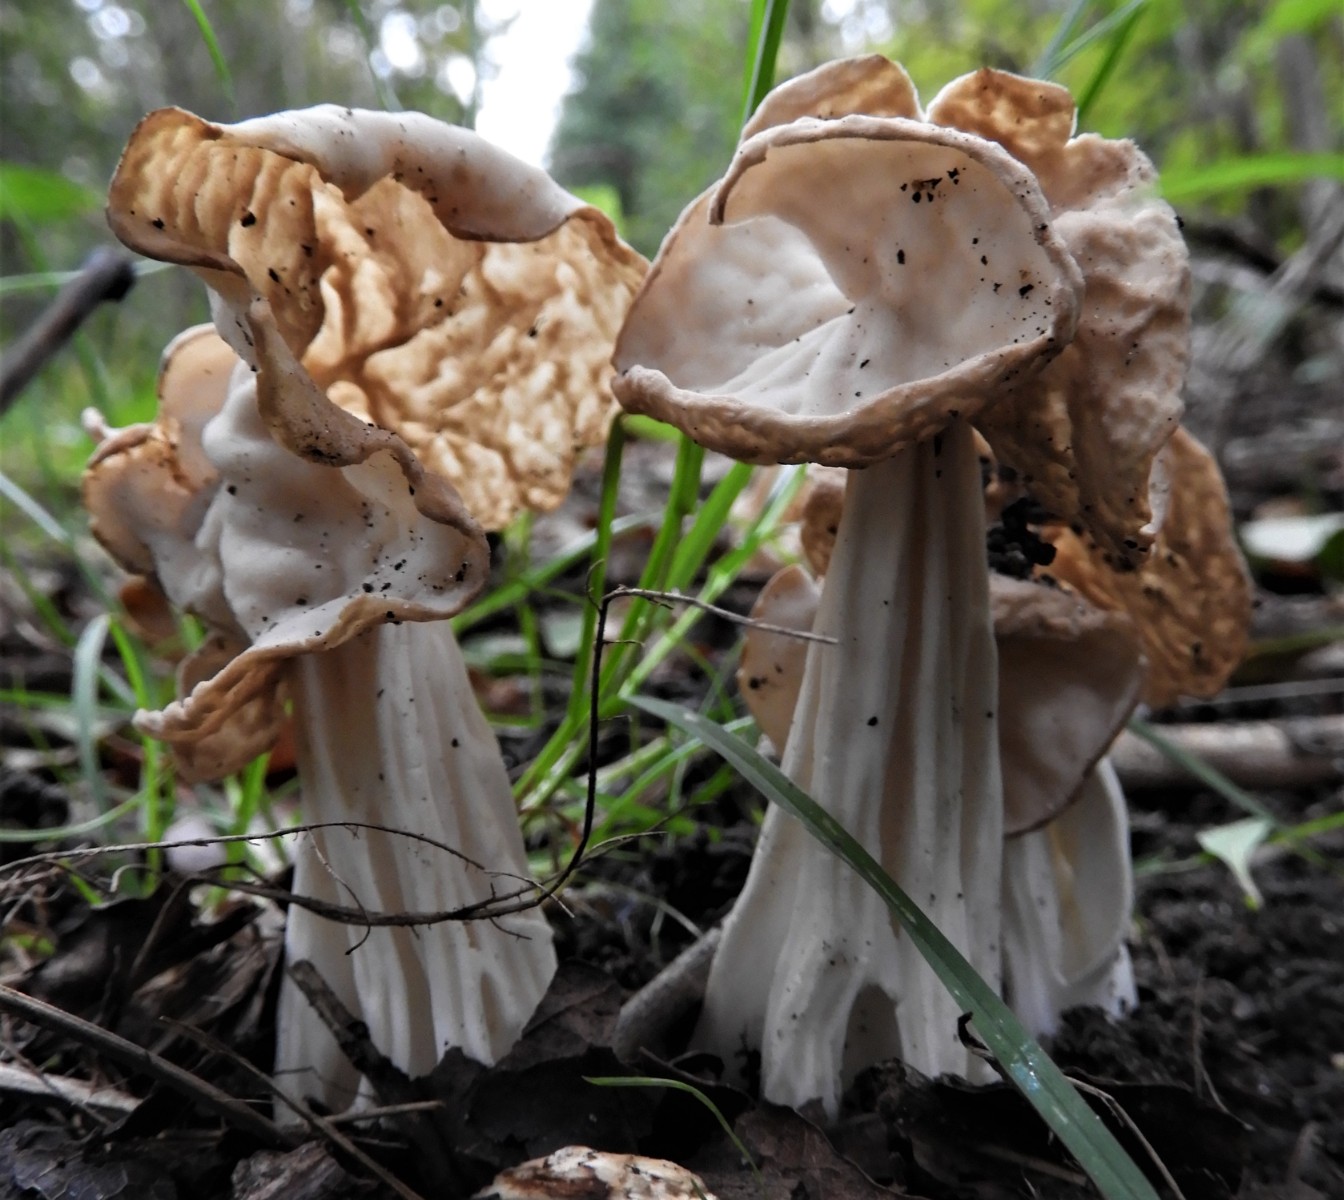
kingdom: Fungi
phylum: Ascomycota
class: Pezizomycetes
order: Pezizales
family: Helvellaceae
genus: Helvella
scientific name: Helvella crispa
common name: kruset foldhat
